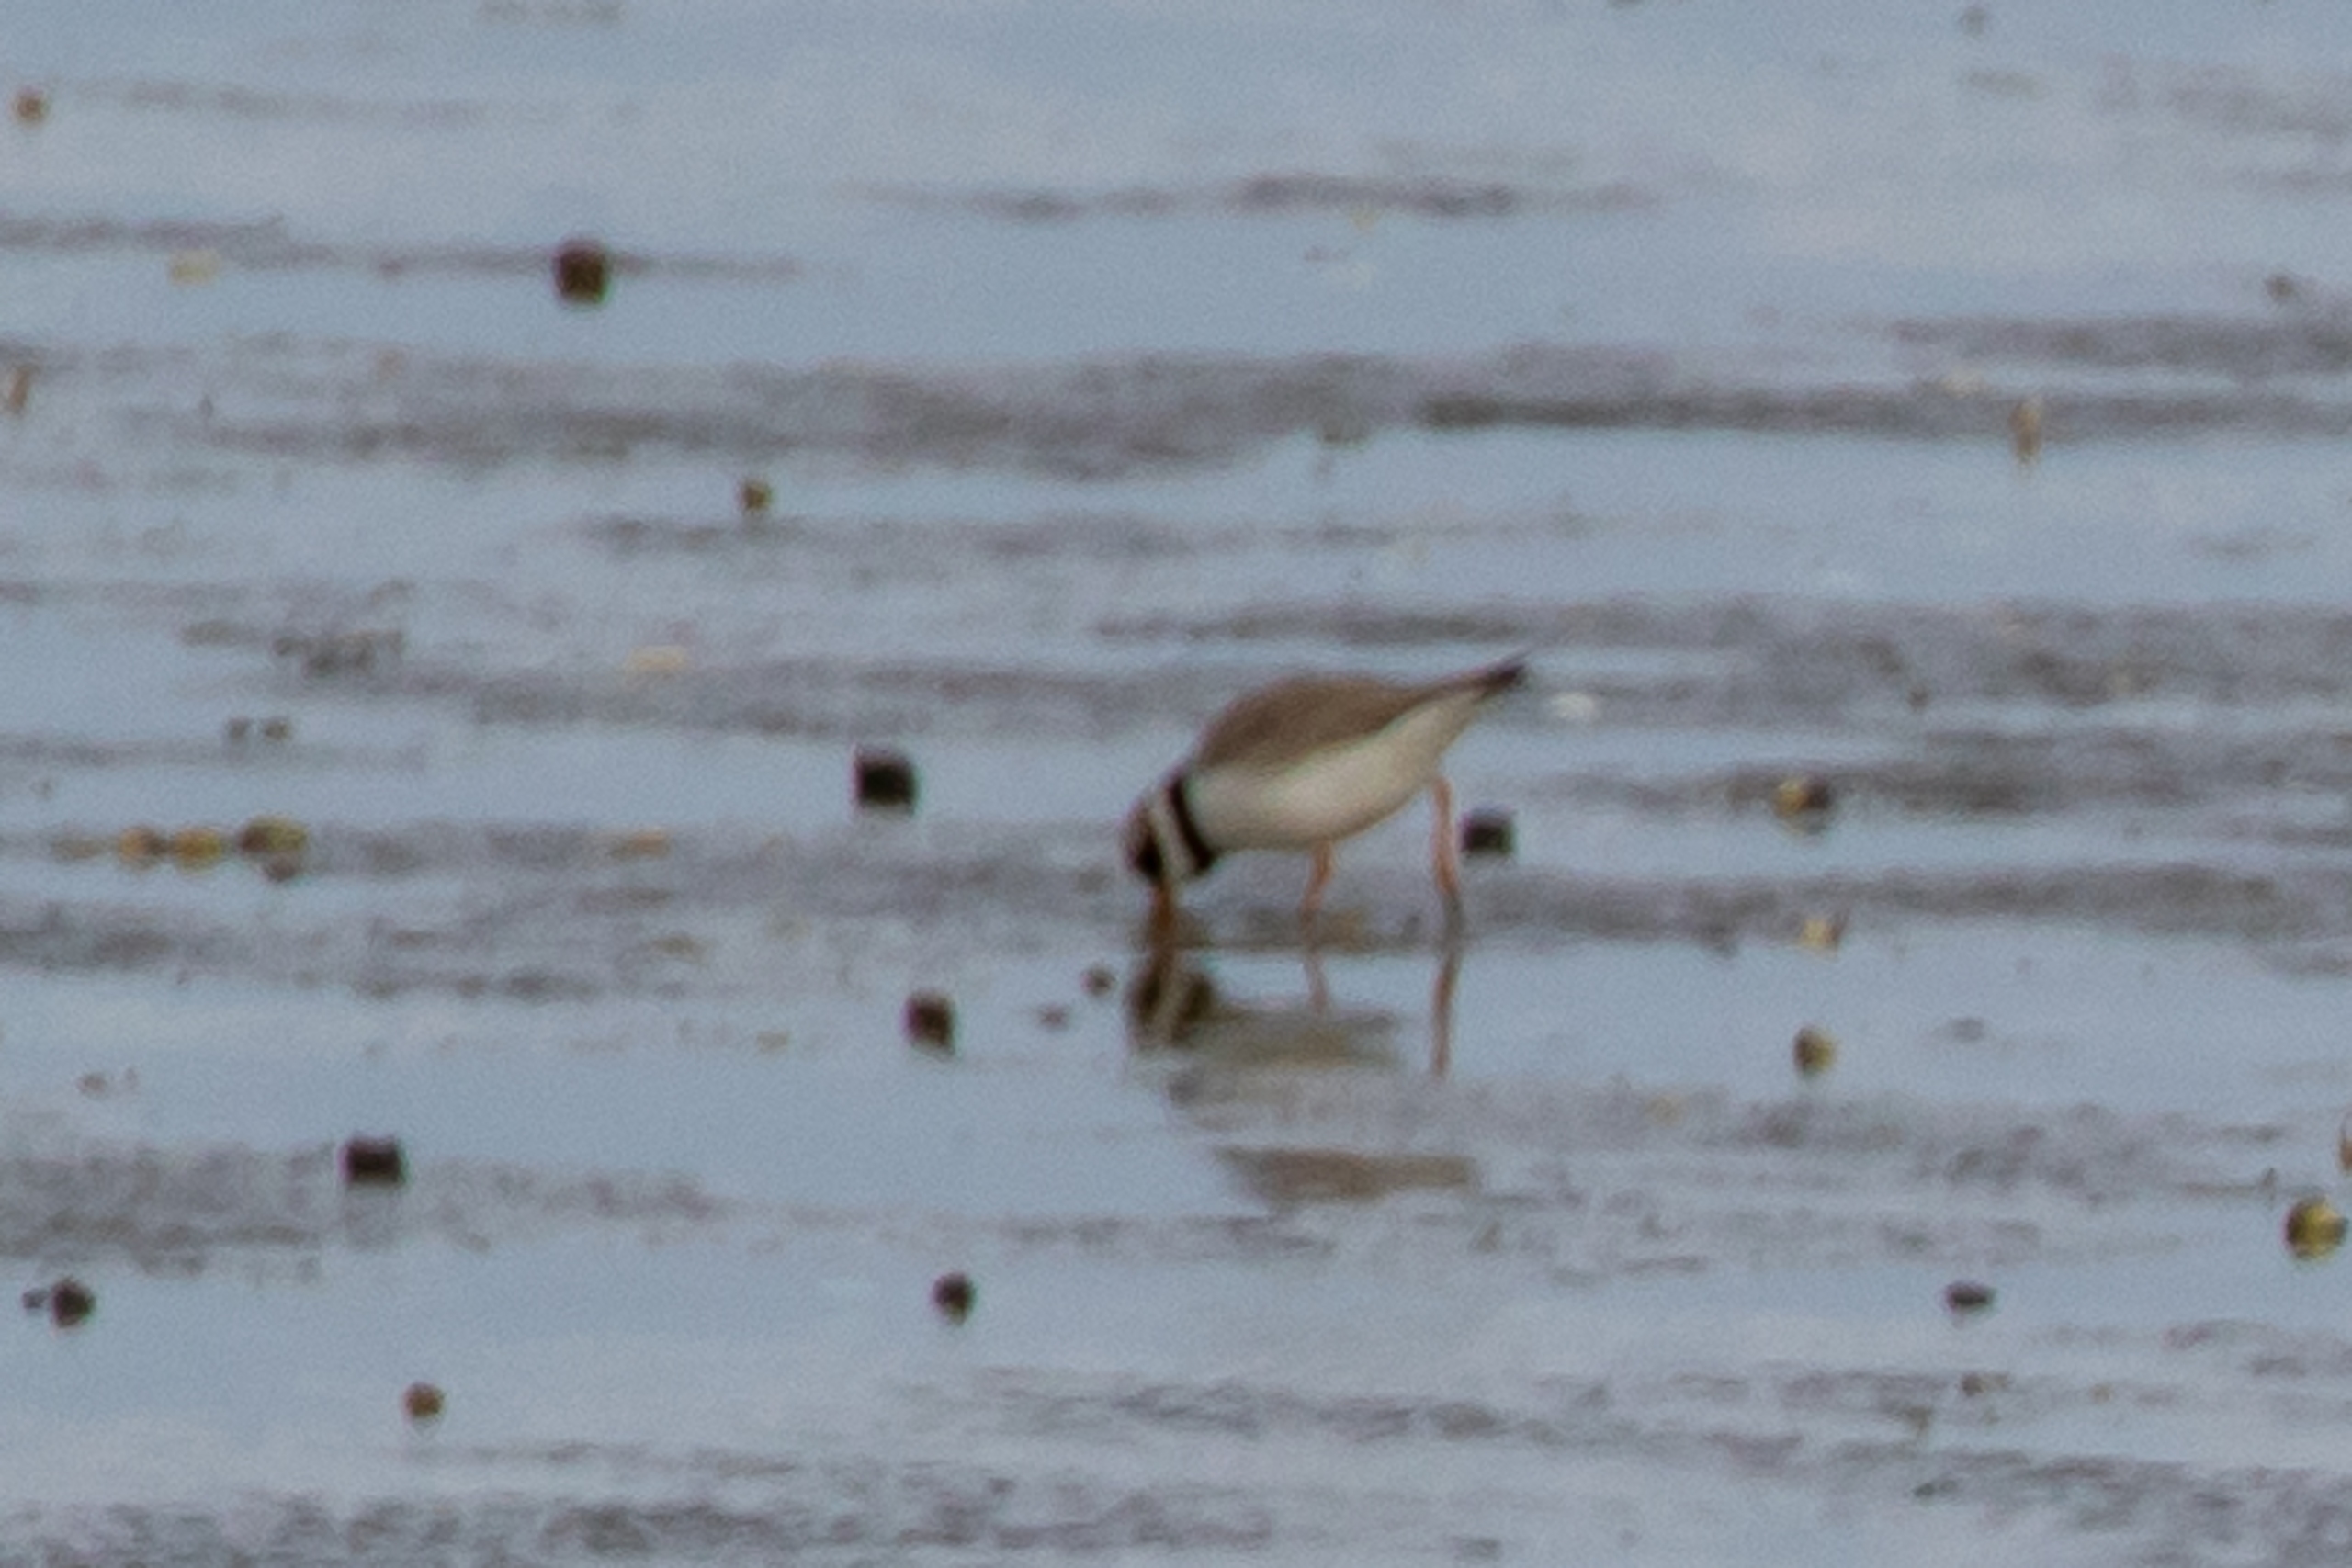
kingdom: Animalia
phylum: Chordata
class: Aves
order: Charadriiformes
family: Charadriidae
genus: Charadrius
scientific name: Charadrius hiaticula
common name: Stor præstekrave
